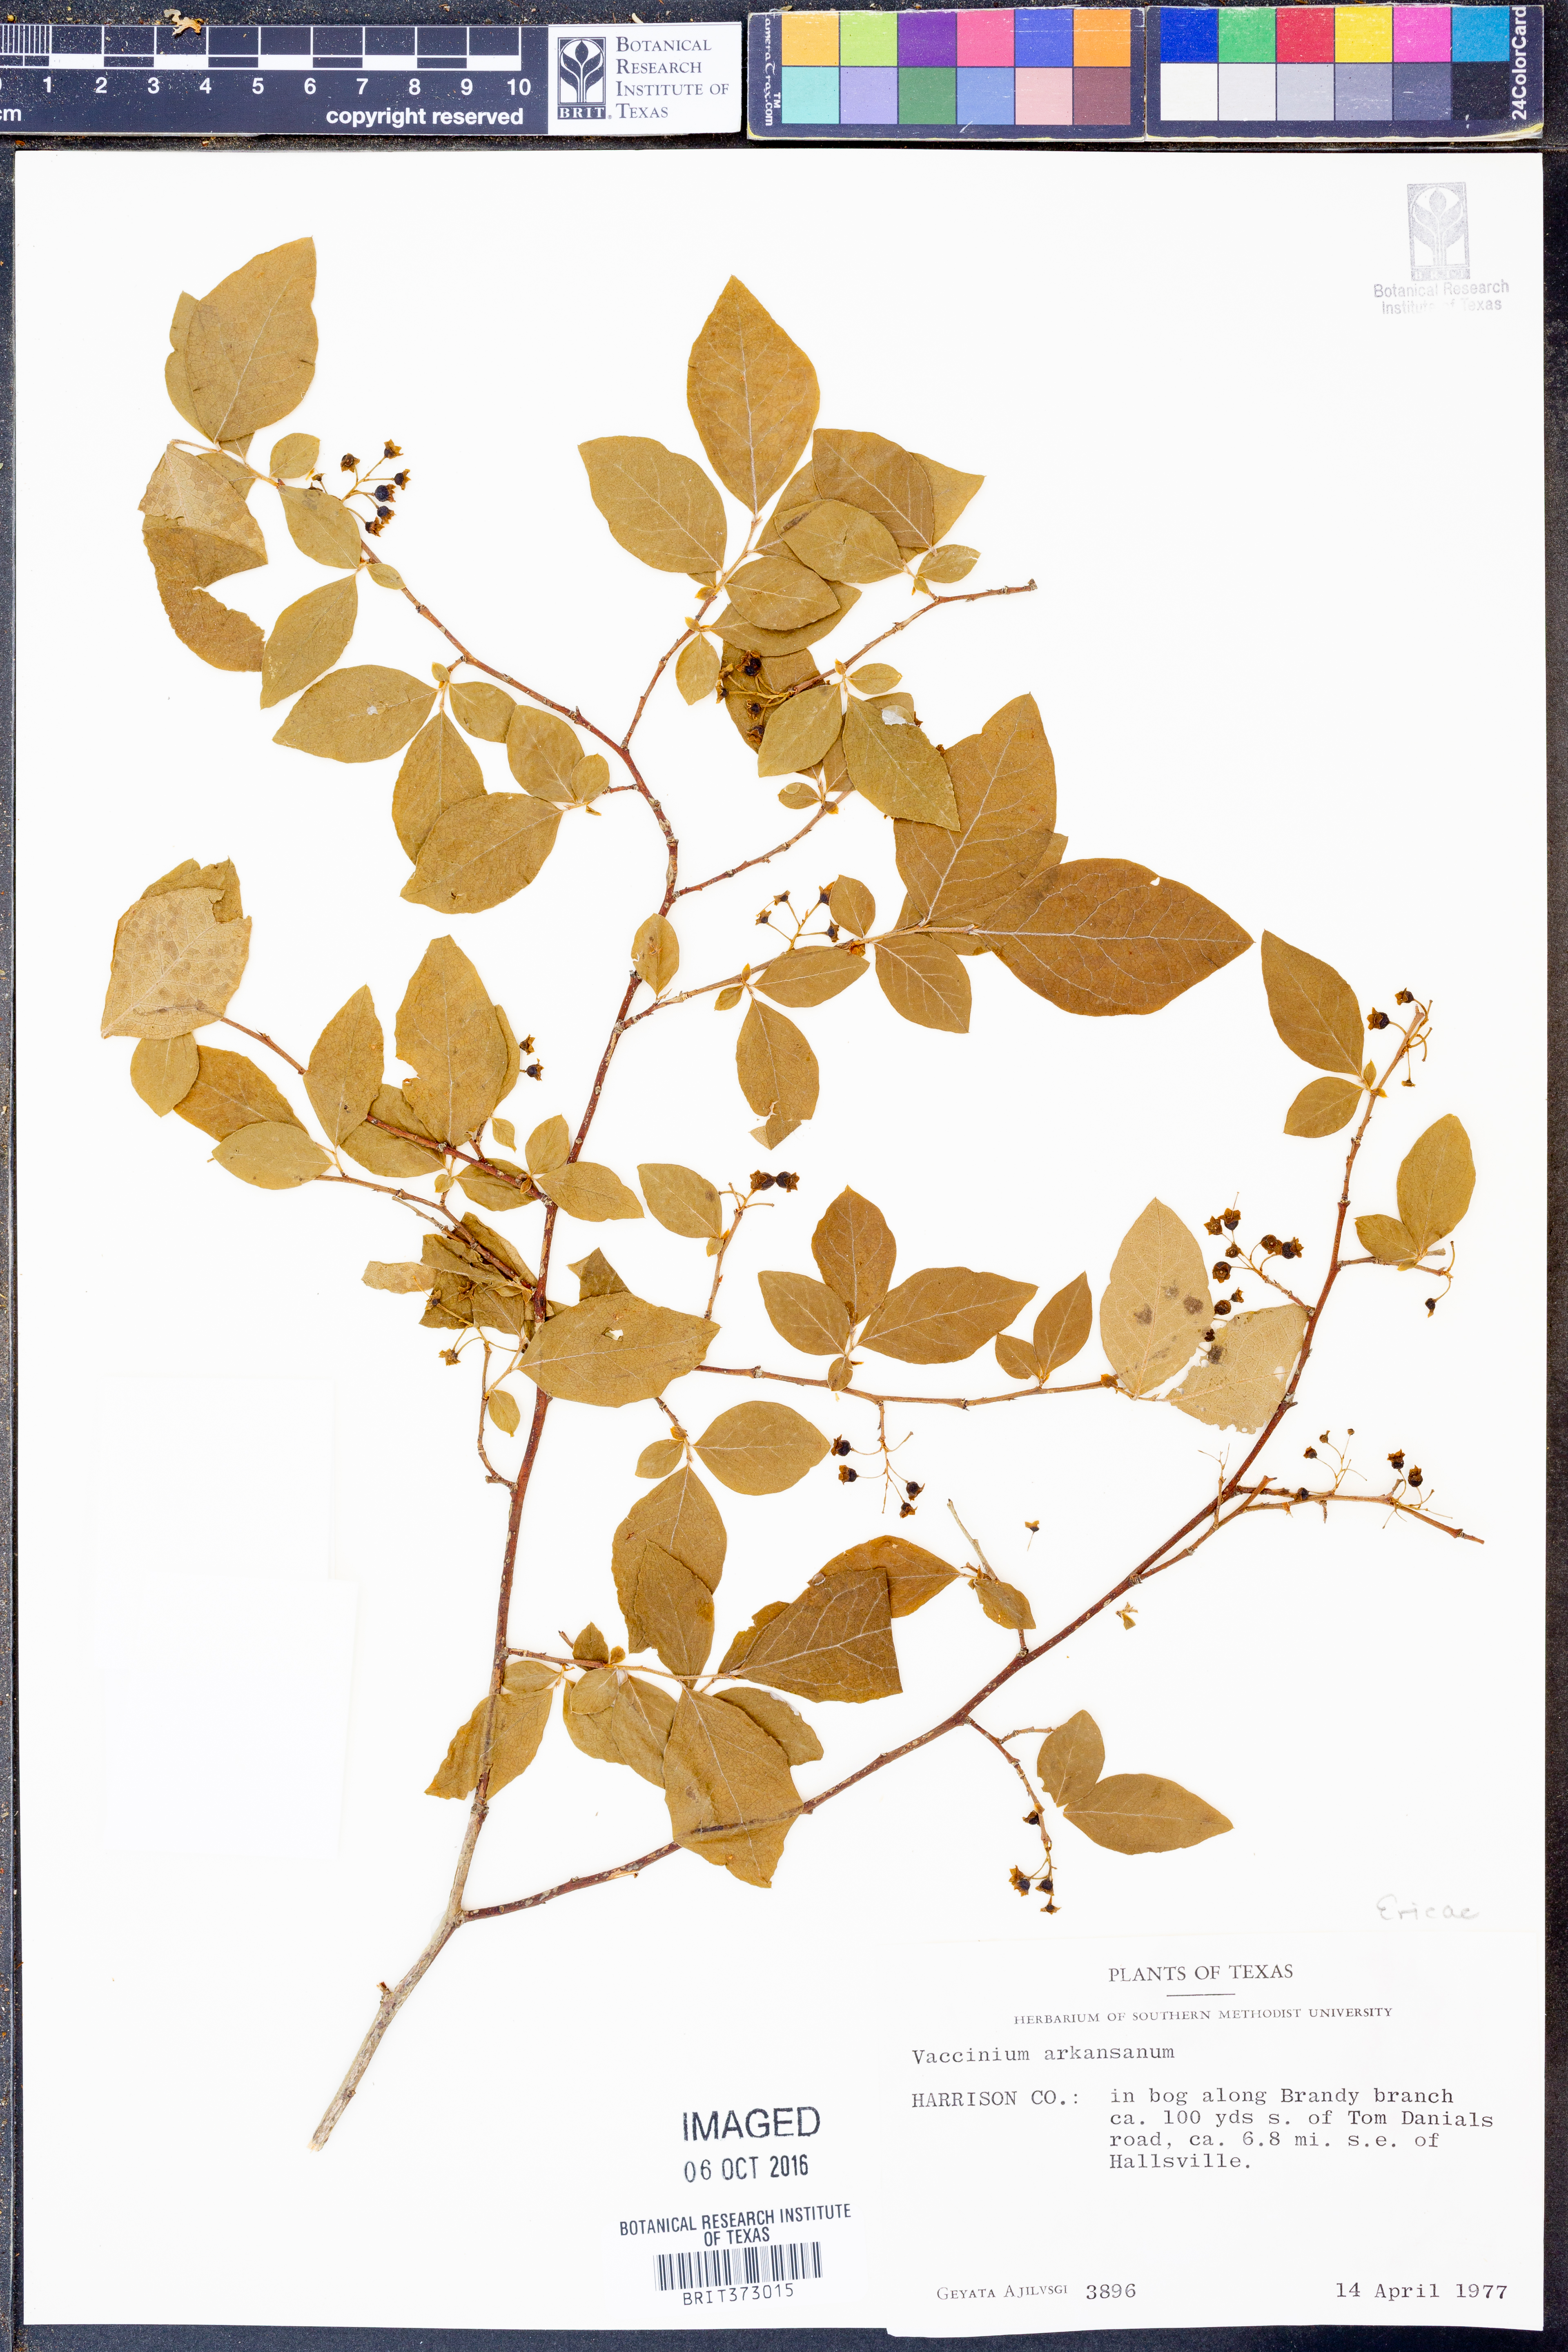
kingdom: Plantae
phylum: Tracheophyta
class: Magnoliopsida
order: Ericales
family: Ericaceae
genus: Vaccinium
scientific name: Vaccinium corymbosum
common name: Blueberry
